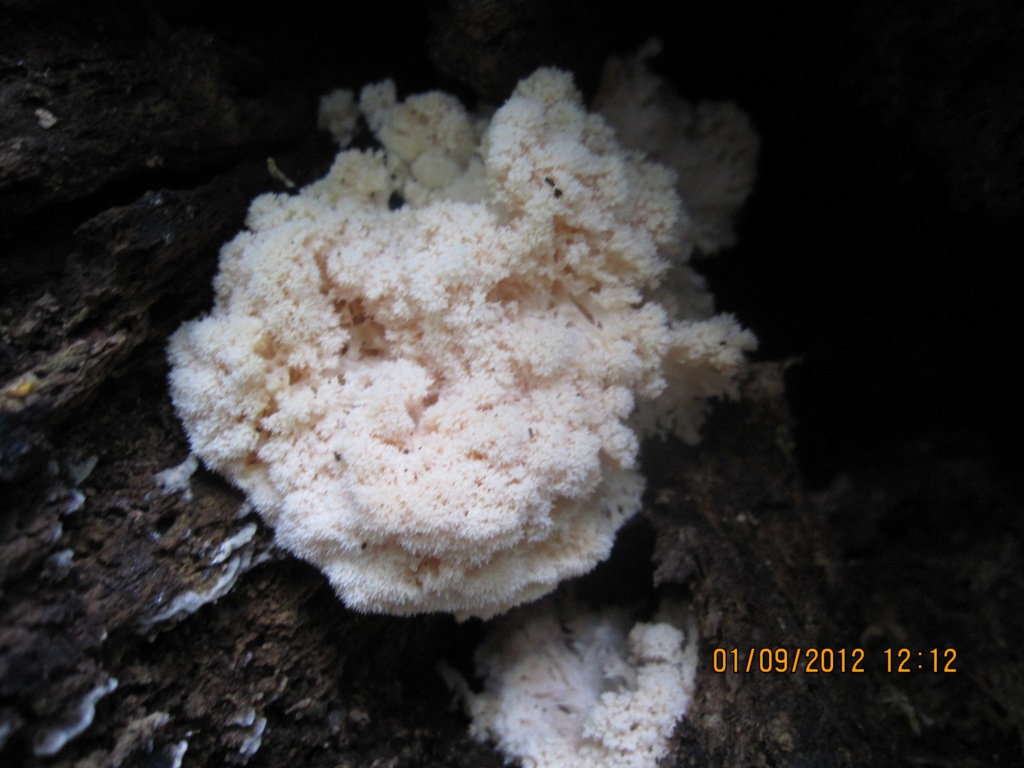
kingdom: Fungi
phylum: Basidiomycota
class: Agaricomycetes
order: Russulales
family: Hericiaceae
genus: Hericium
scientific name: Hericium erinaceus
